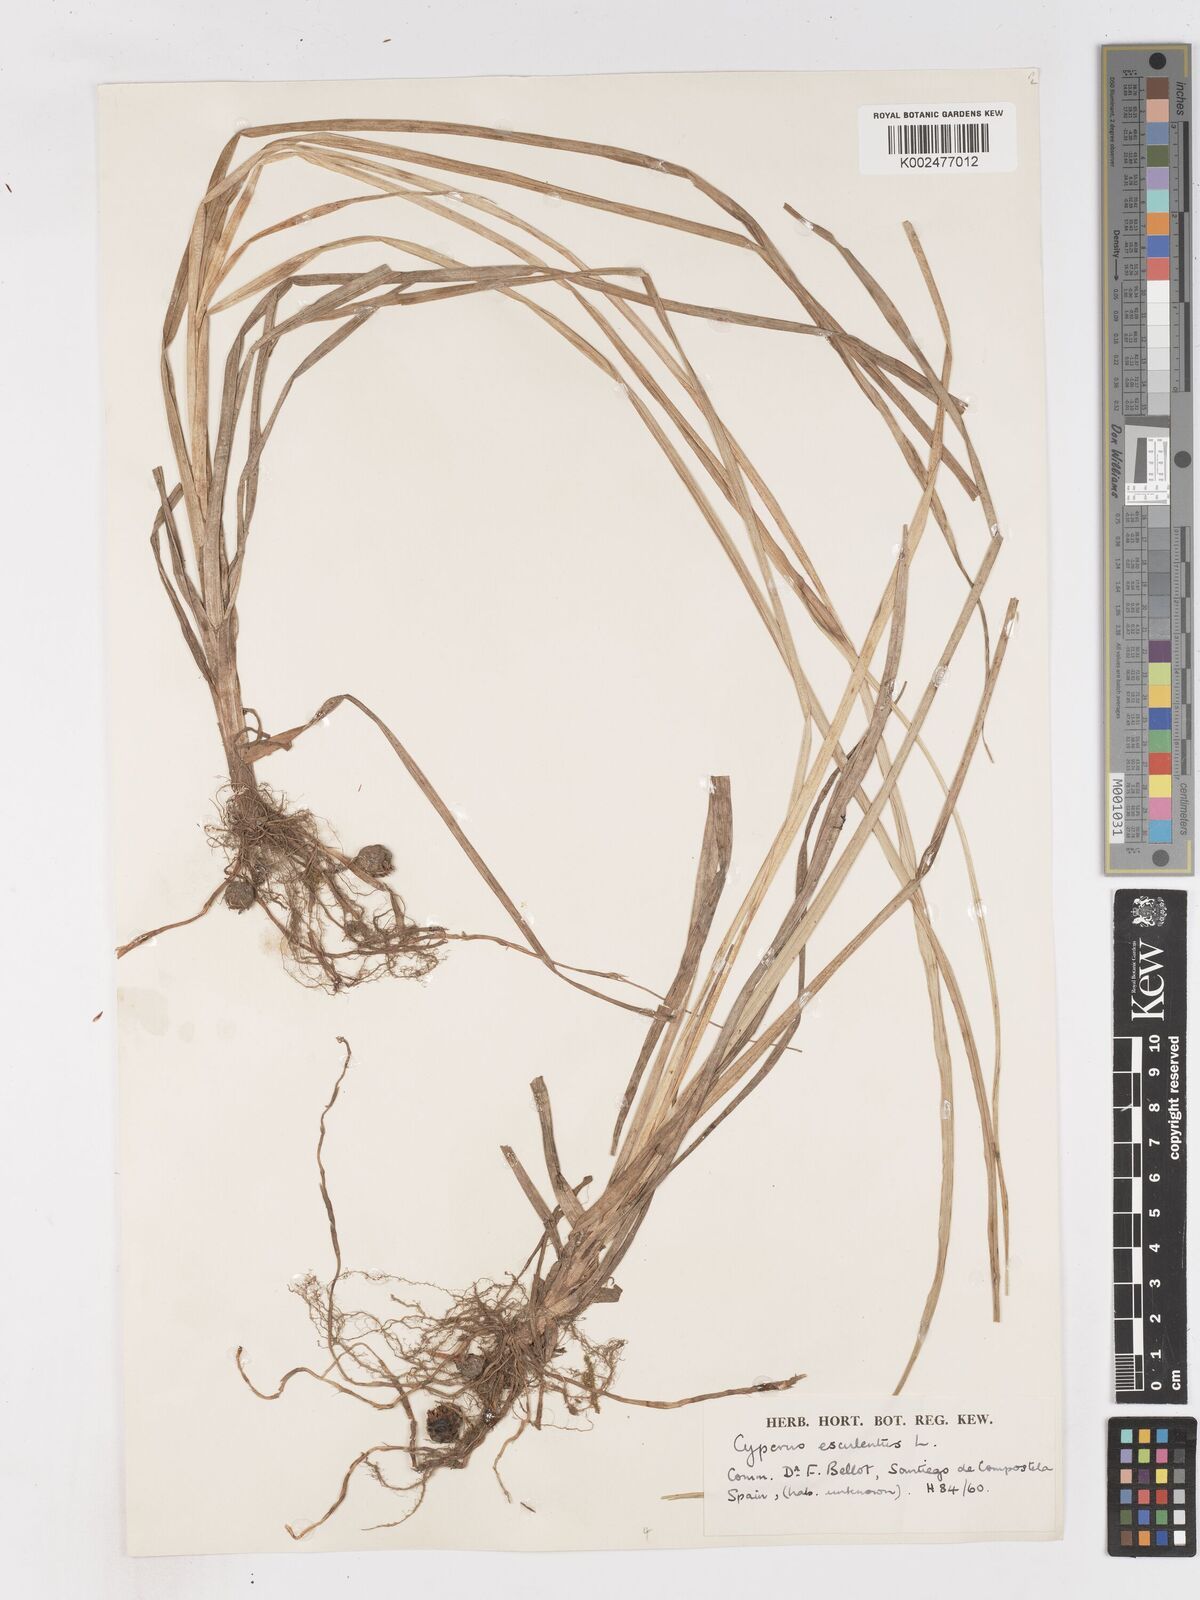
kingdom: Plantae
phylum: Tracheophyta
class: Liliopsida
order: Poales
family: Cyperaceae
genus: Cyperus
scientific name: Cyperus esculentus
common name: Yellow nutsedge
